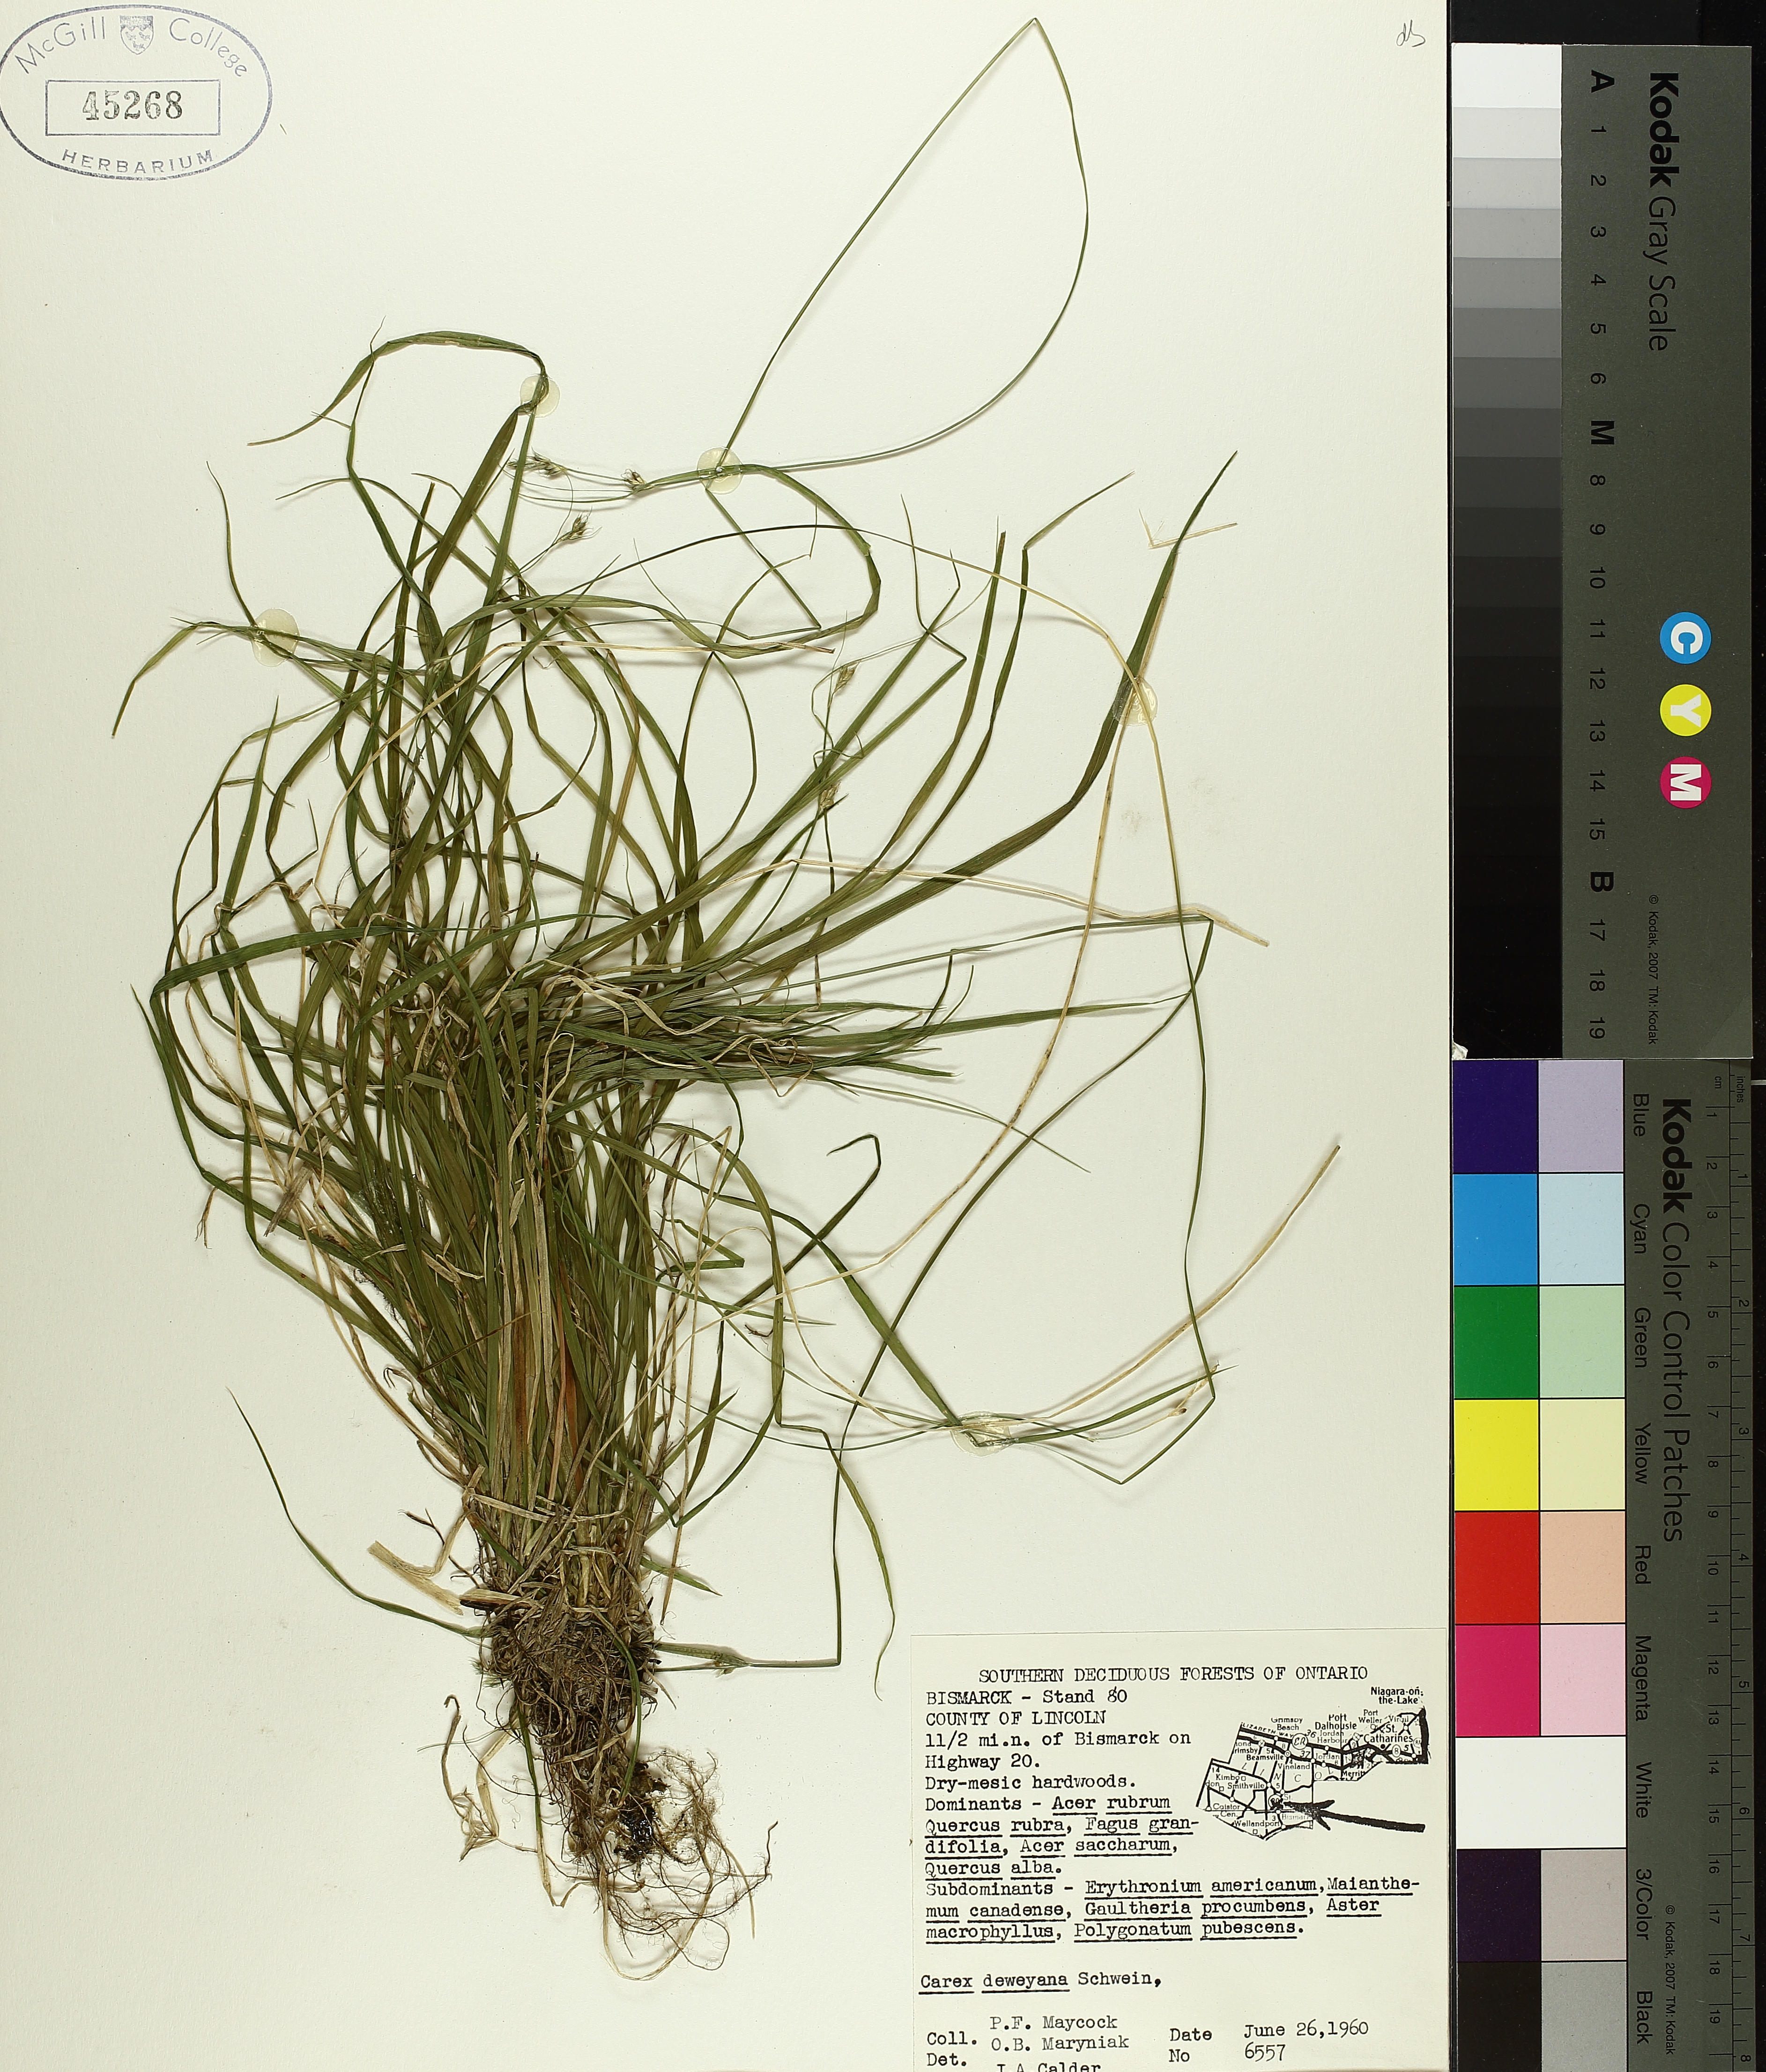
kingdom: Plantae
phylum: Tracheophyta
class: Liliopsida
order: Poales
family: Cyperaceae
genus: Carex
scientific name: Carex deweyana
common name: Dewey's sedge
